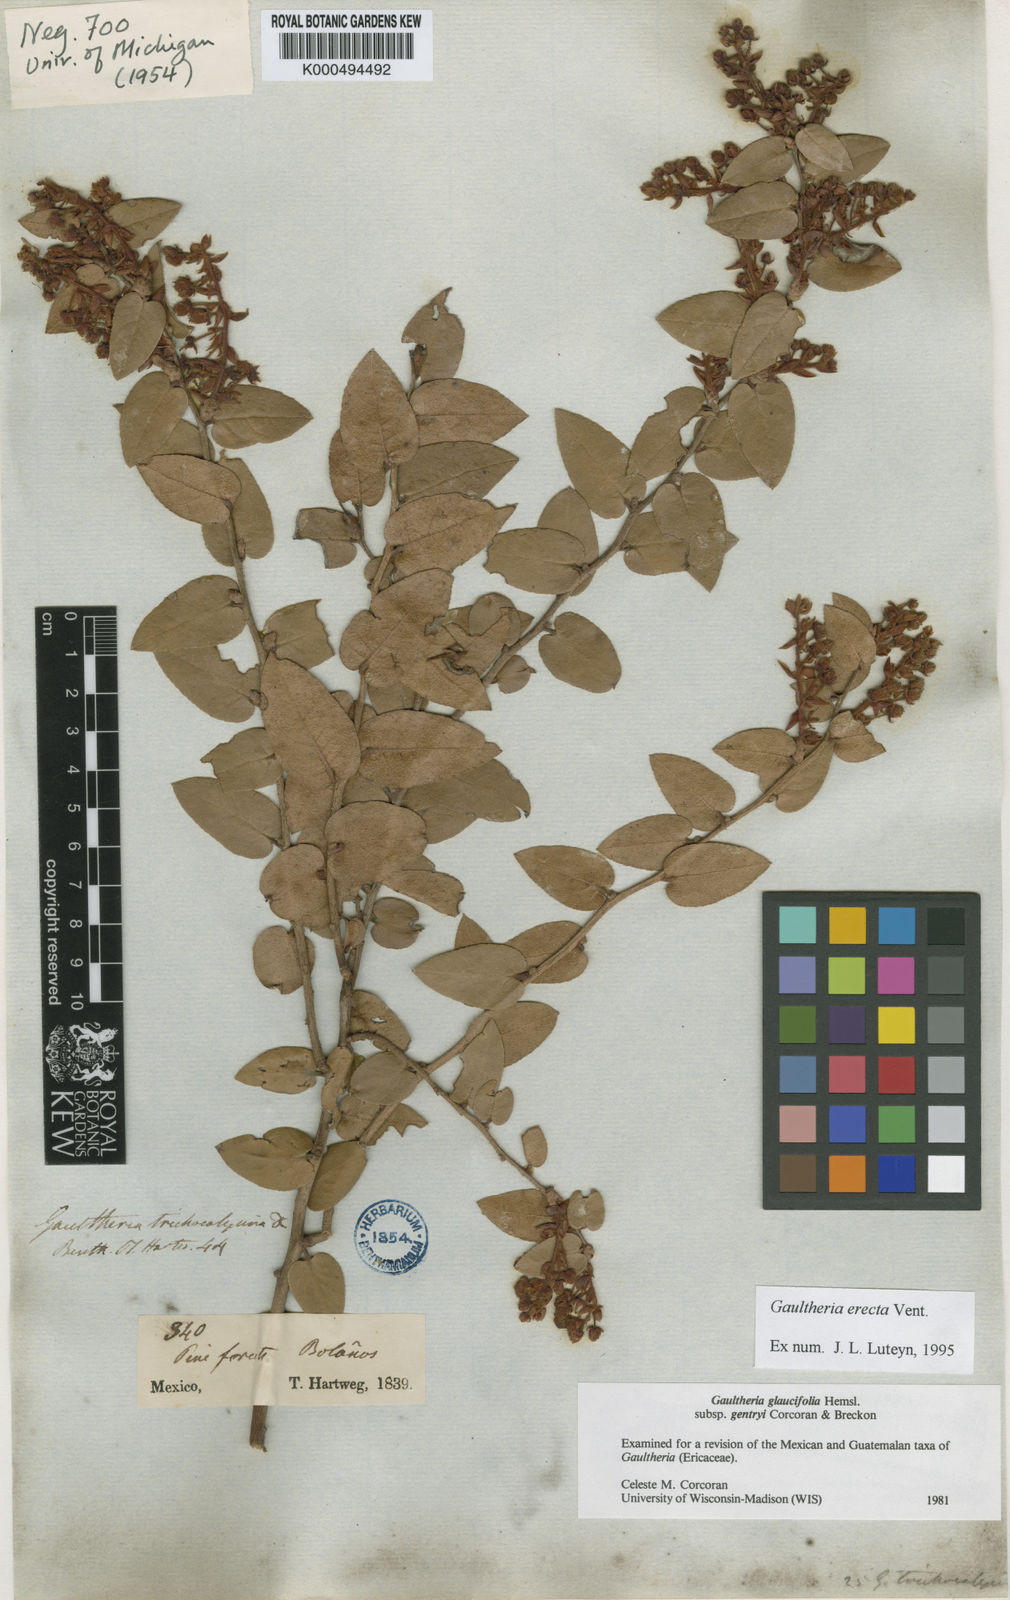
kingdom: Plantae
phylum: Tracheophyta
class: Magnoliopsida
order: Ericales
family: Ericaceae
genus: Gaultheria
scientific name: Gaultheria erecta
